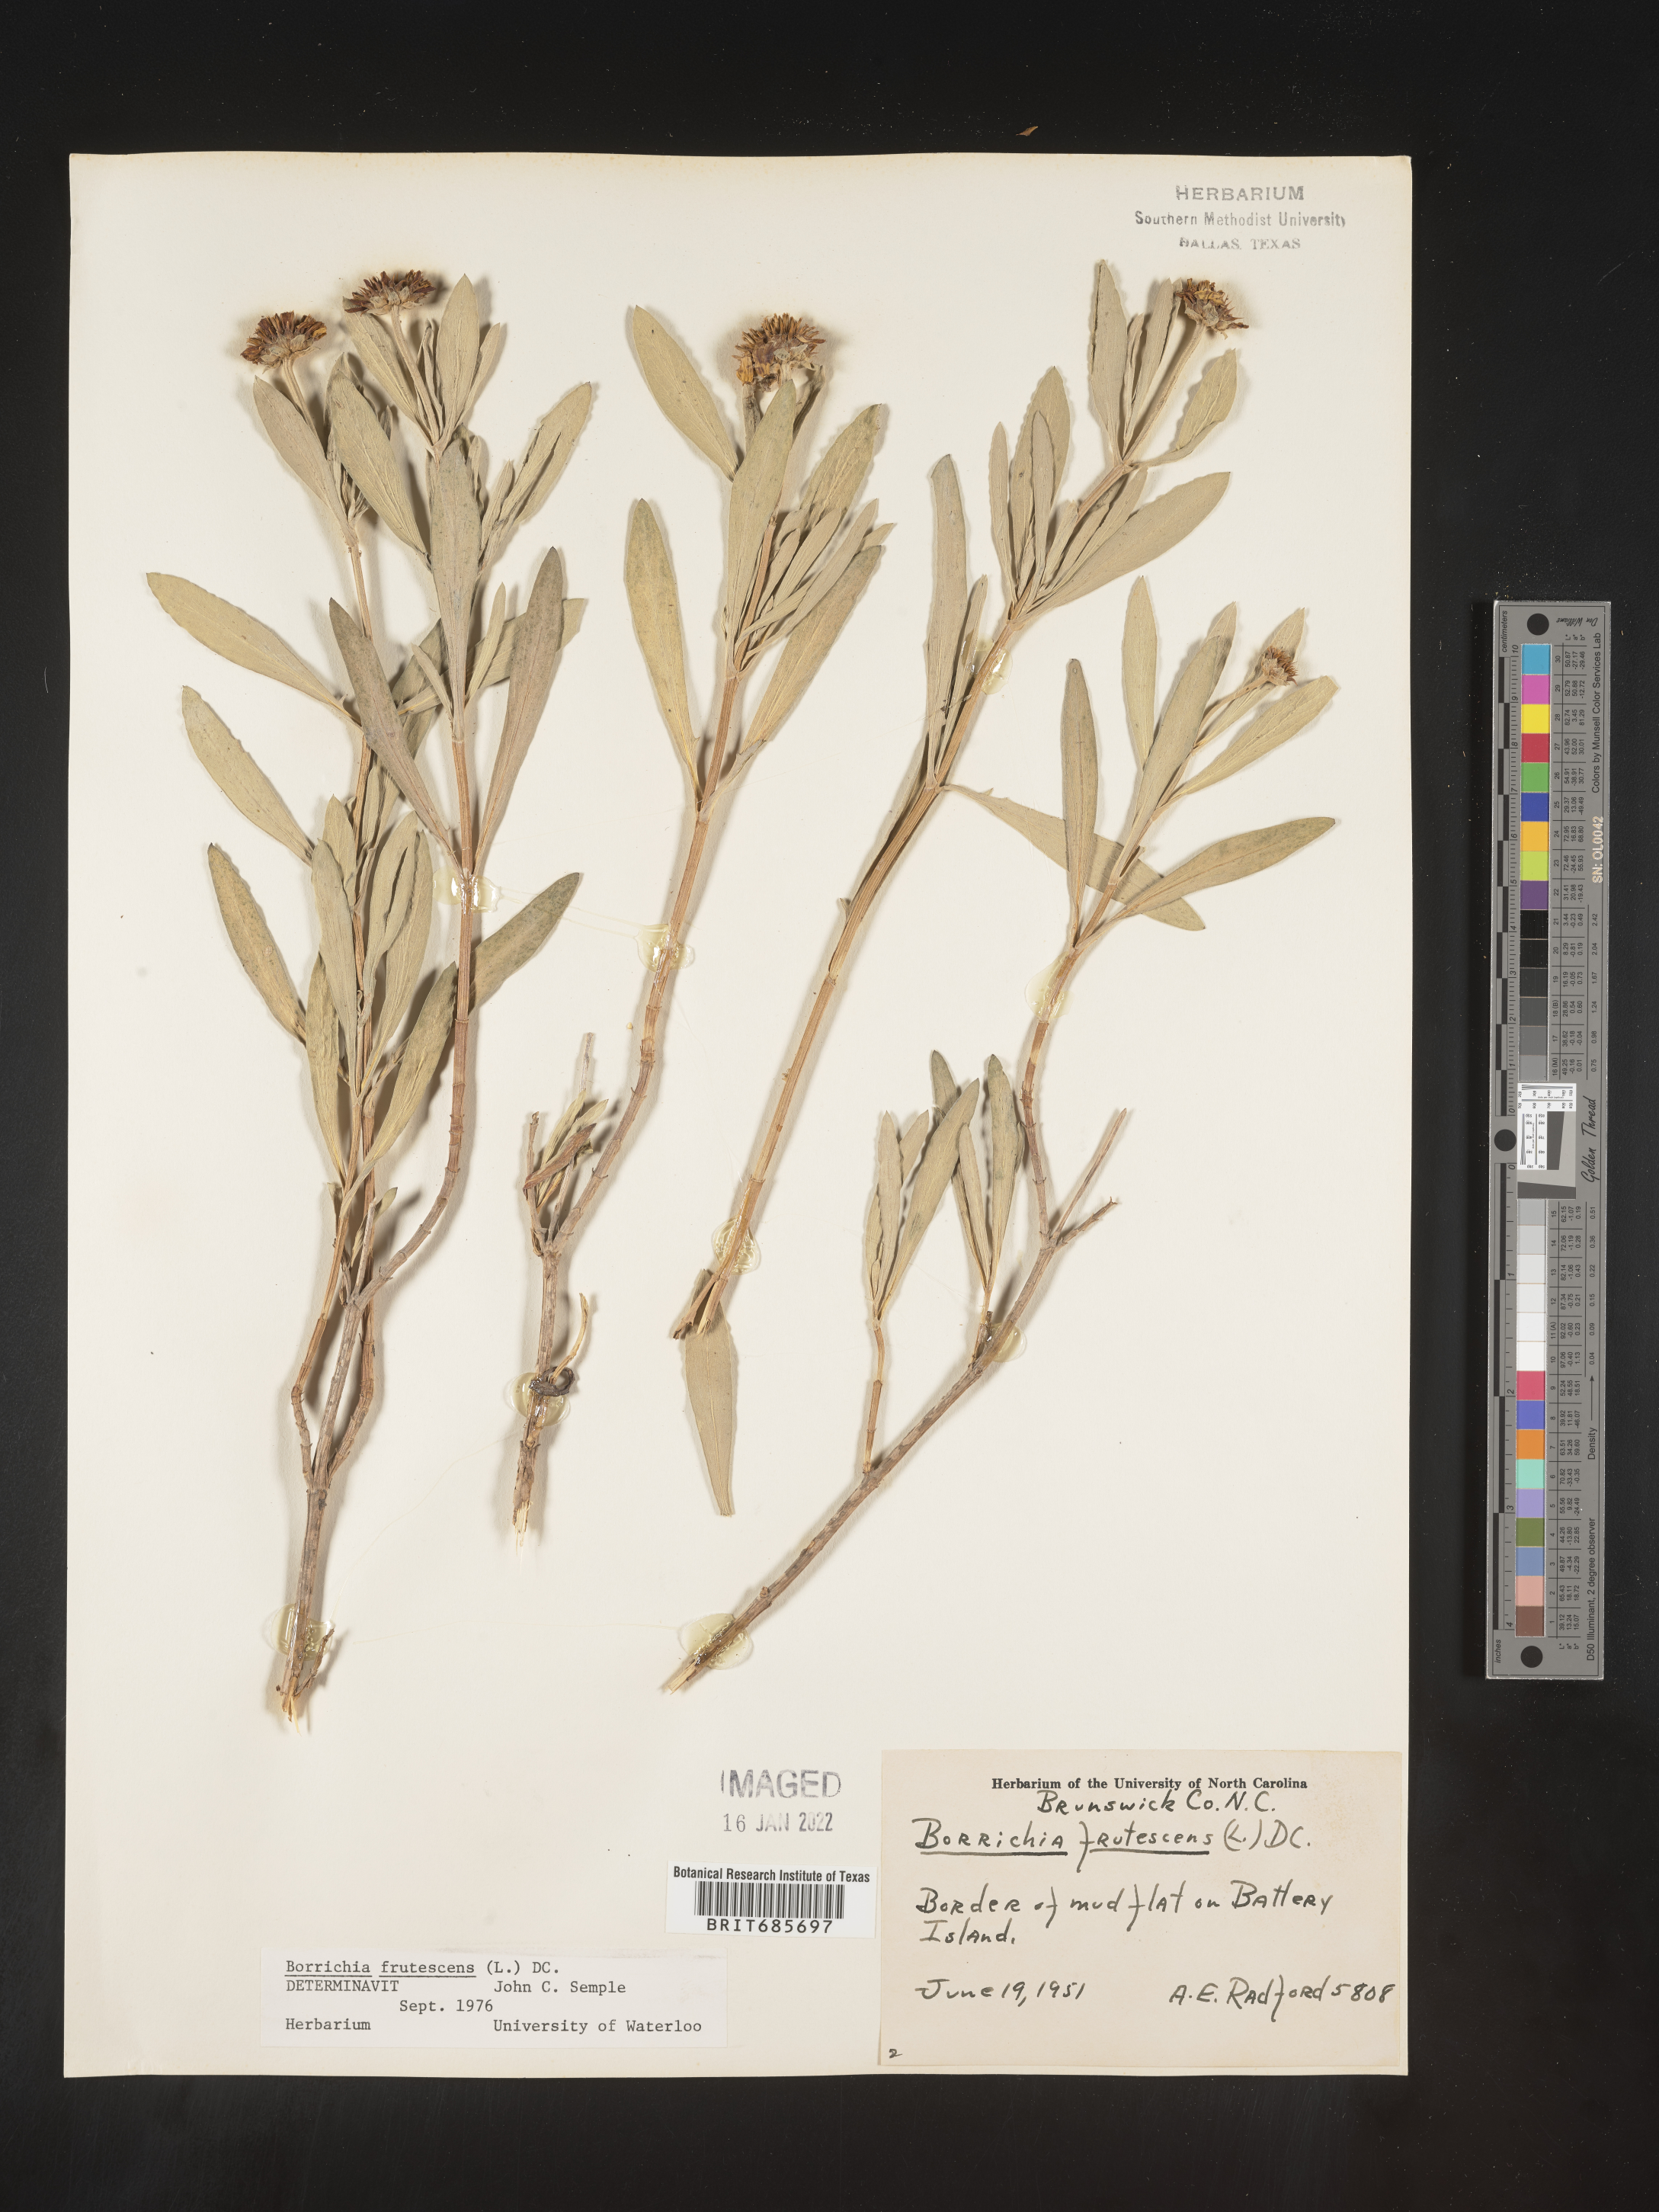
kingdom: Plantae
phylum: Tracheophyta
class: Magnoliopsida
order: Asterales
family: Asteraceae
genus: Borrichia
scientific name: Borrichia frutescens
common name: Sea oxeye
